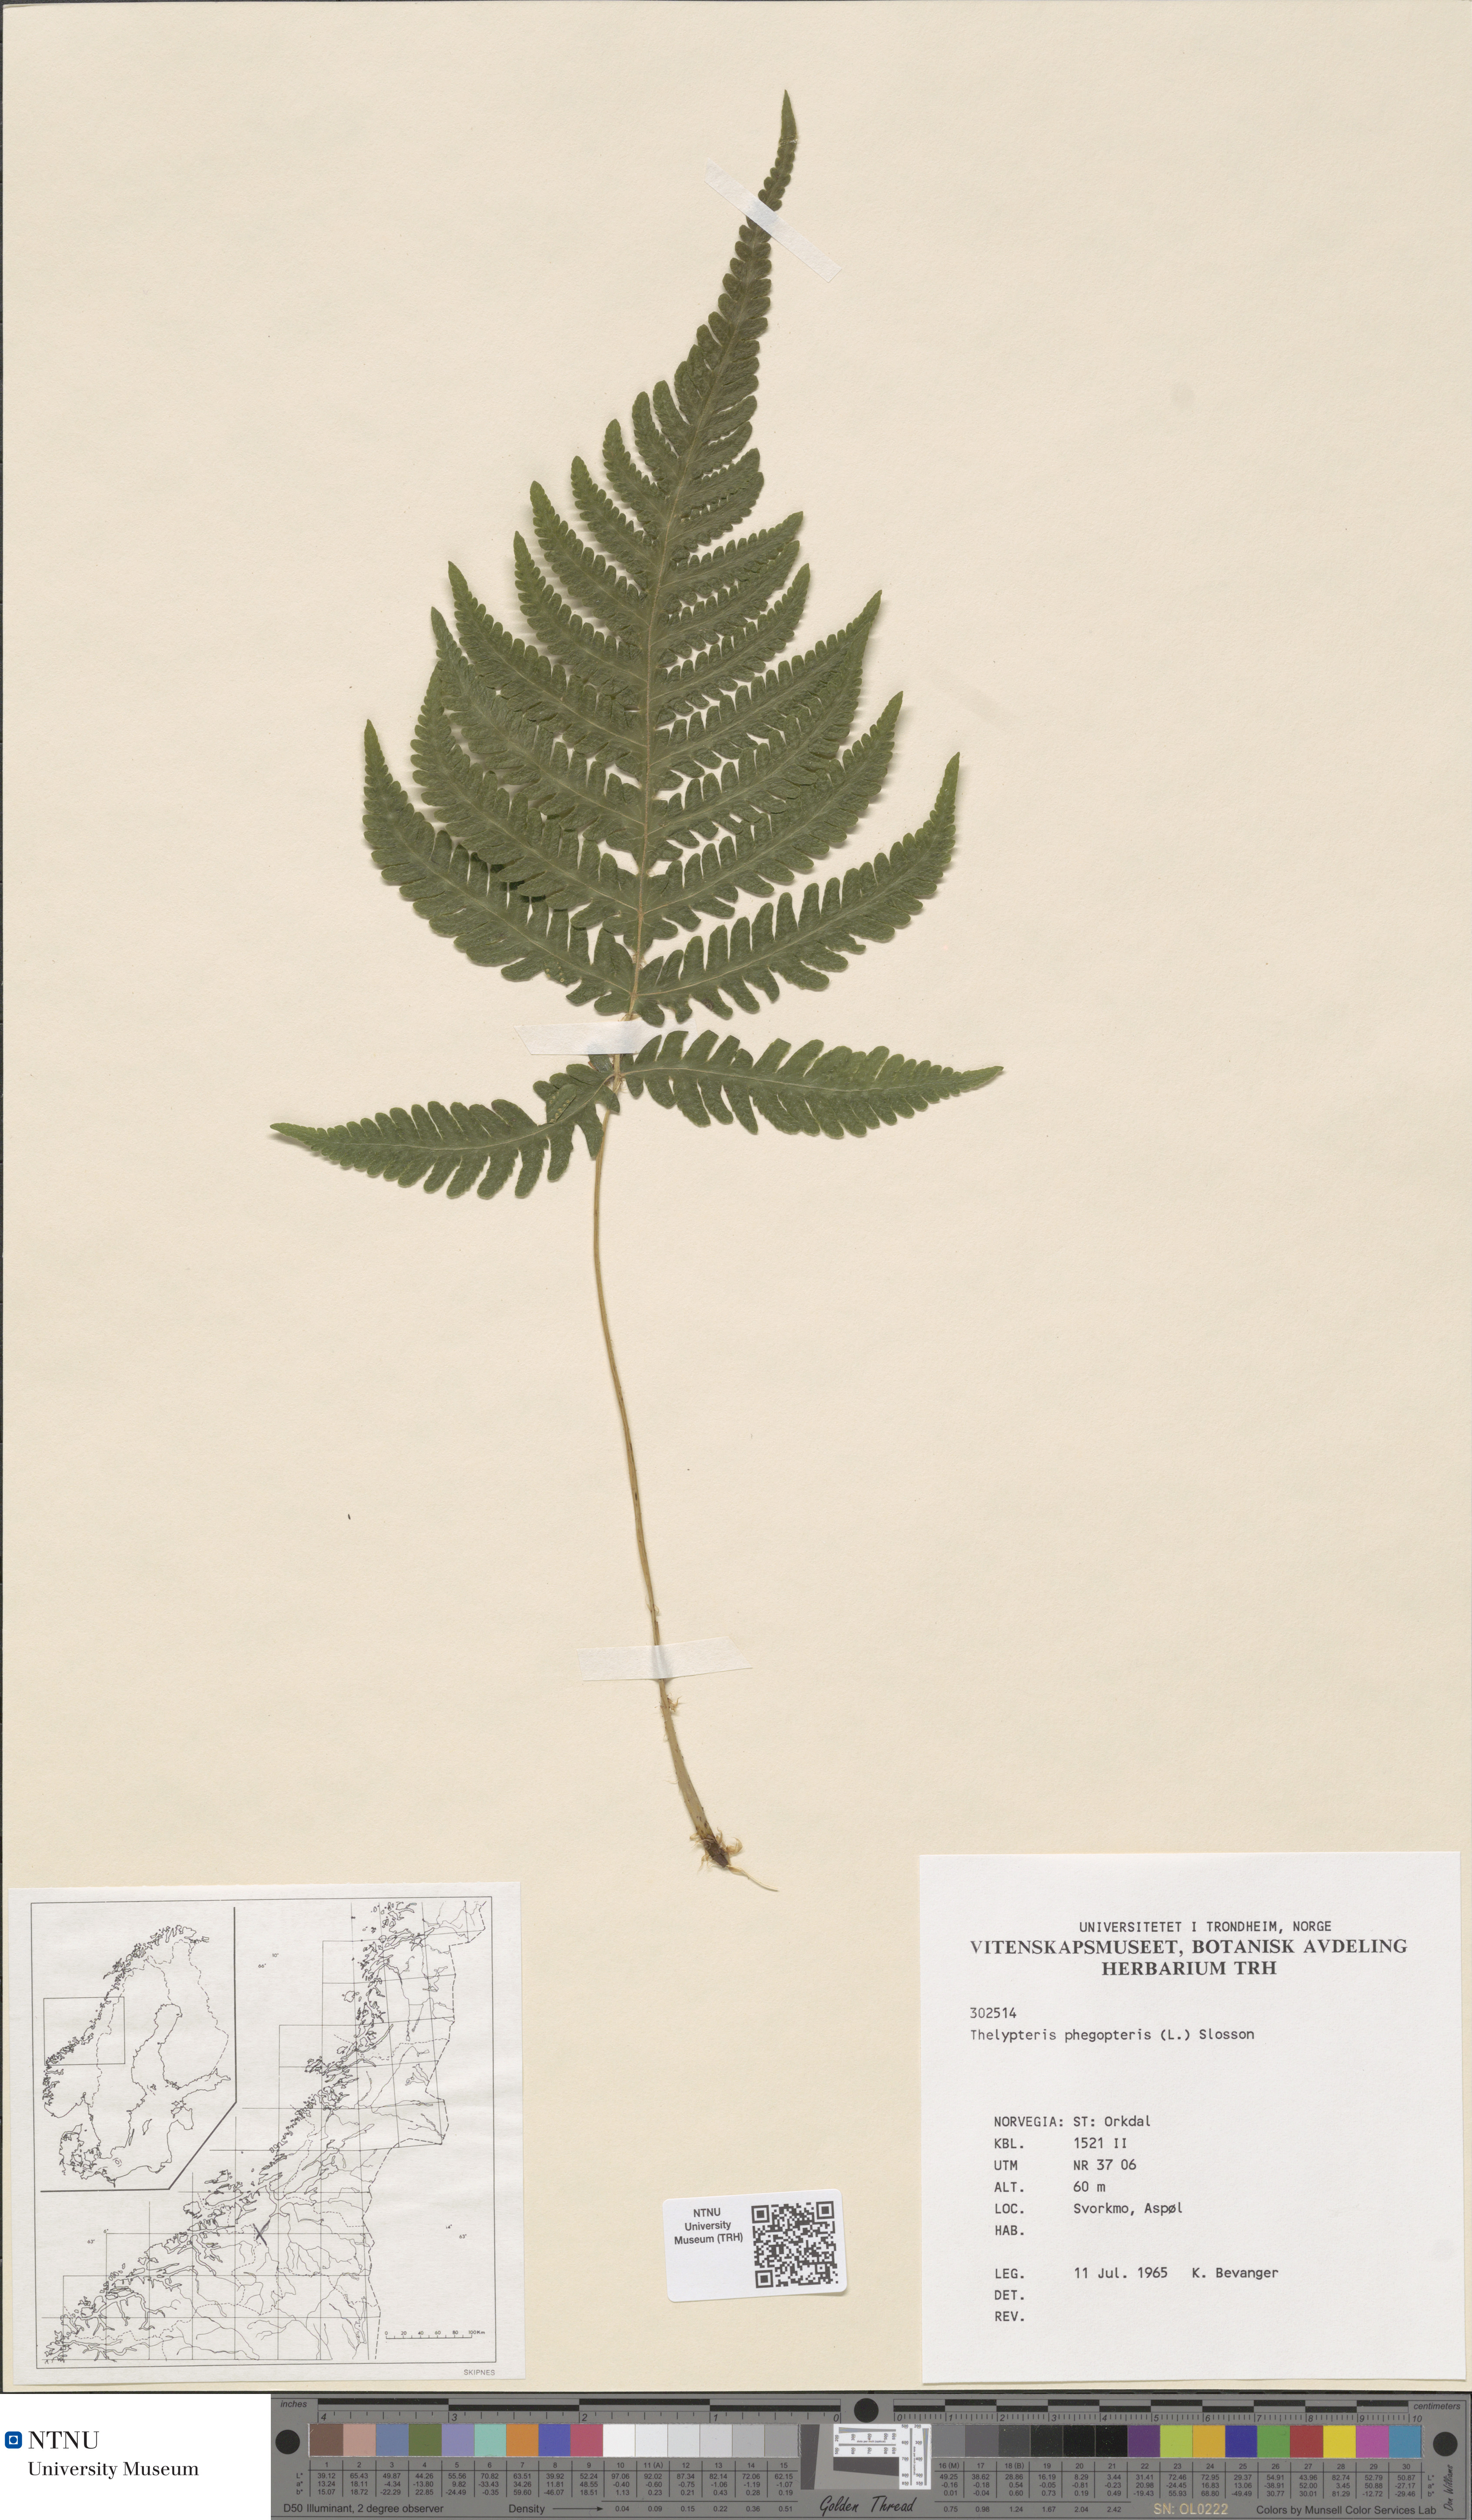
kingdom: Plantae
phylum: Tracheophyta
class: Polypodiopsida
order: Polypodiales
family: Thelypteridaceae
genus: Phegopteris
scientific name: Phegopteris connectilis
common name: Beech fern
